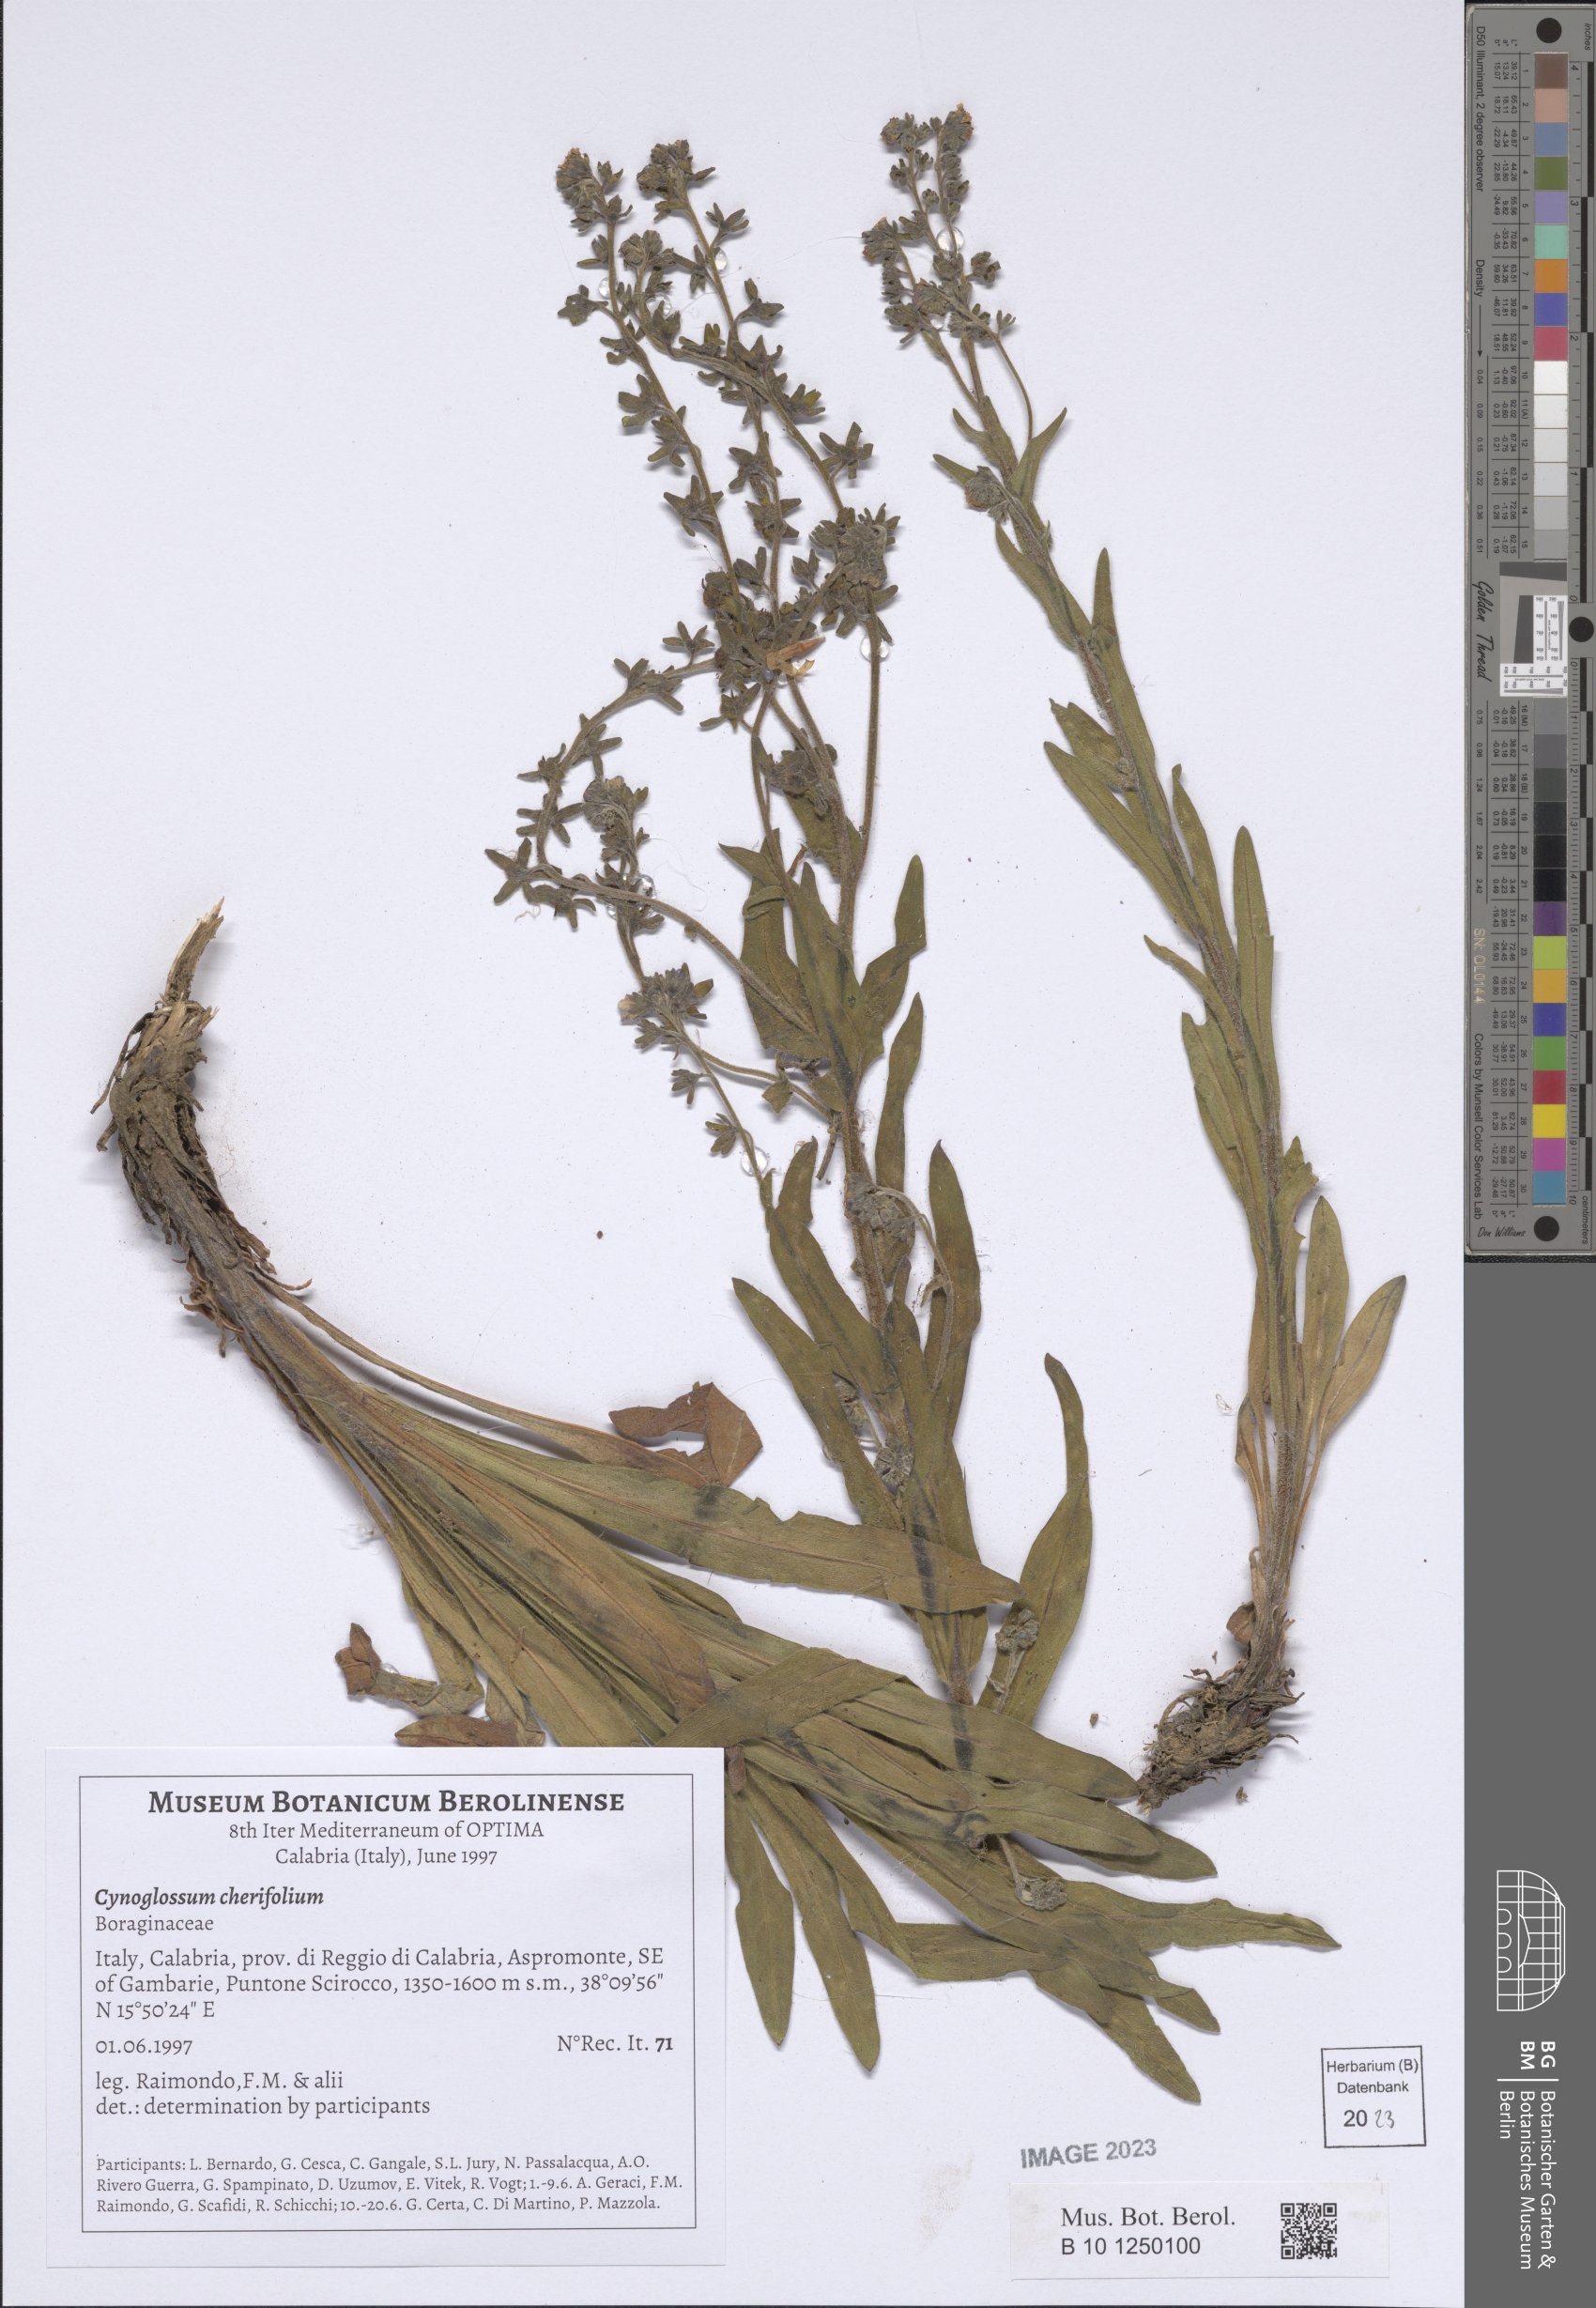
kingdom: Plantae
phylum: Tracheophyta
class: Magnoliopsida
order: Boraginales
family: Boraginaceae
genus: Pardoglossum
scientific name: Pardoglossum cheirifolium
